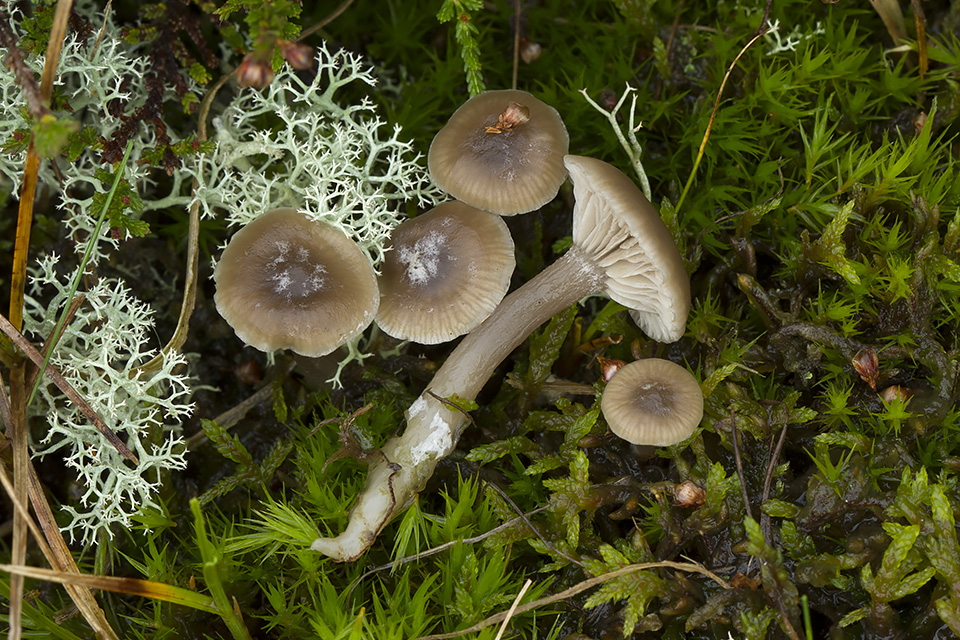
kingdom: Fungi
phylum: Basidiomycota
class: Agaricomycetes
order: Agaricales
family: Tricholomataceae
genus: Clitocybe
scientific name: Clitocybe
